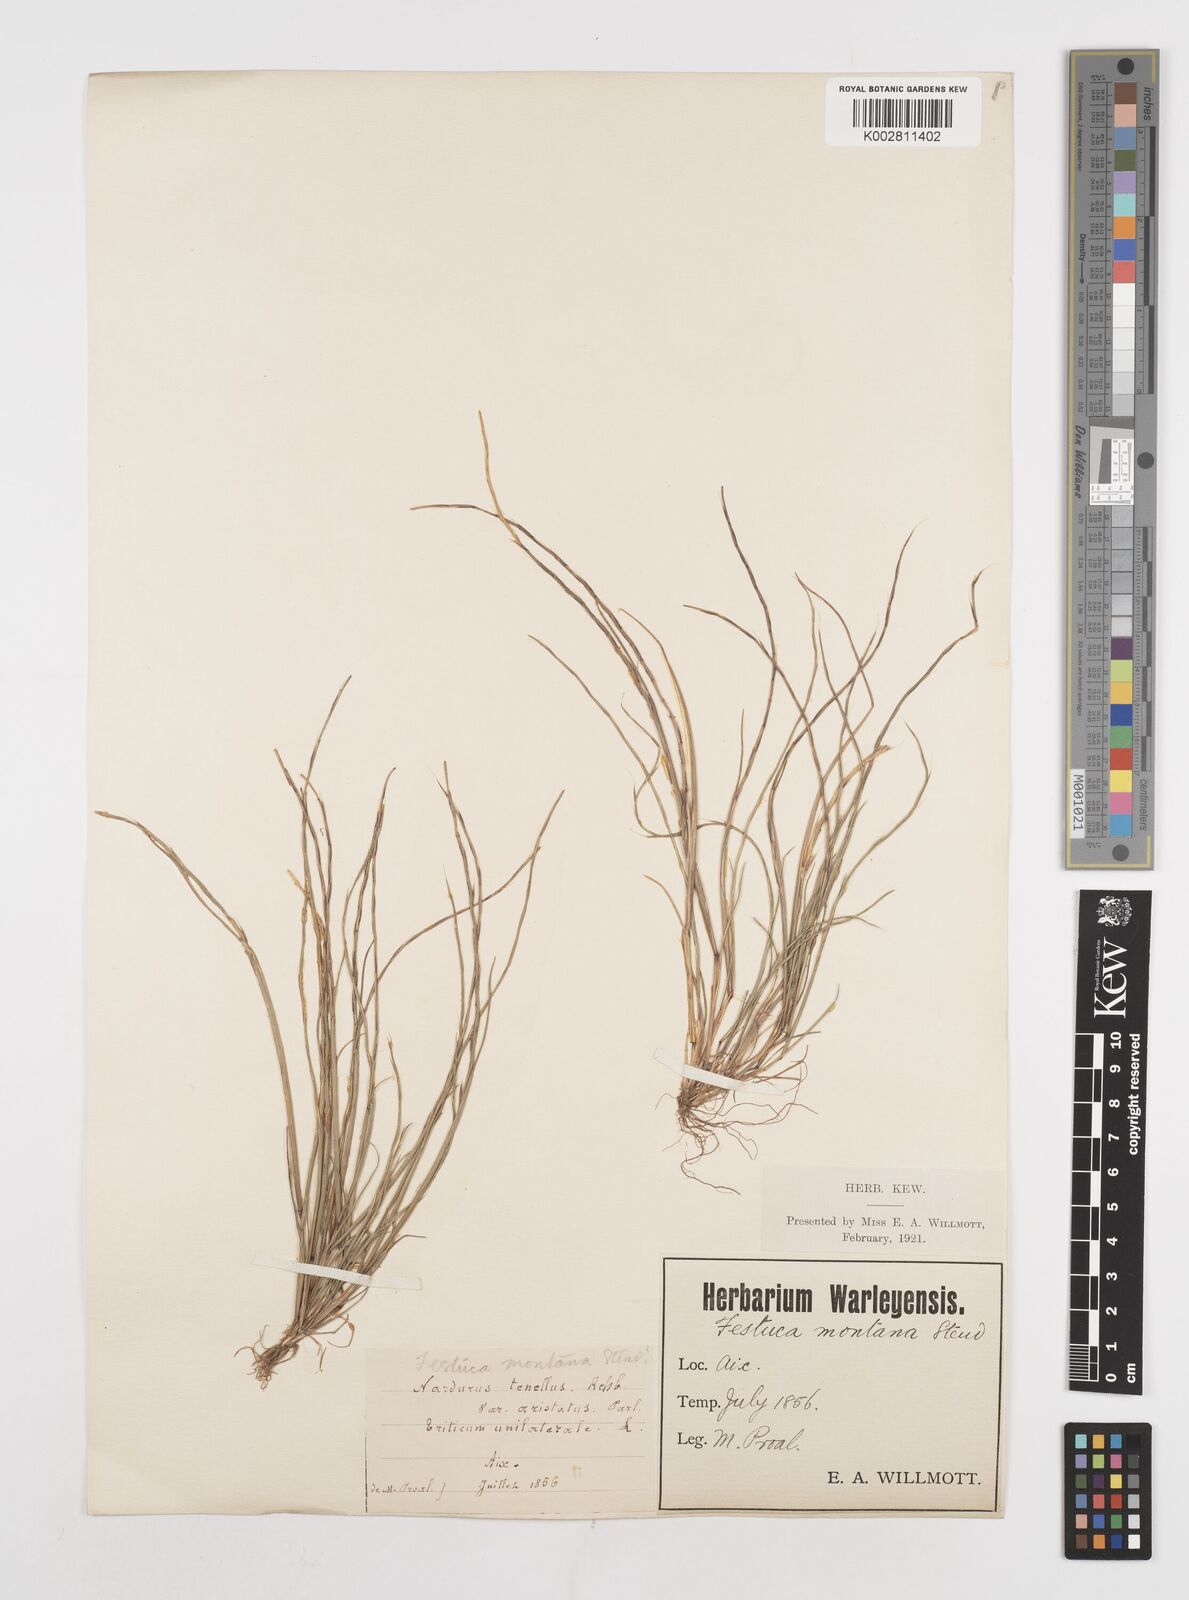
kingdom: Plantae
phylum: Tracheophyta
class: Liliopsida
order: Poales
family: Poaceae
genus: Festuca
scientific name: Festuca incurva
